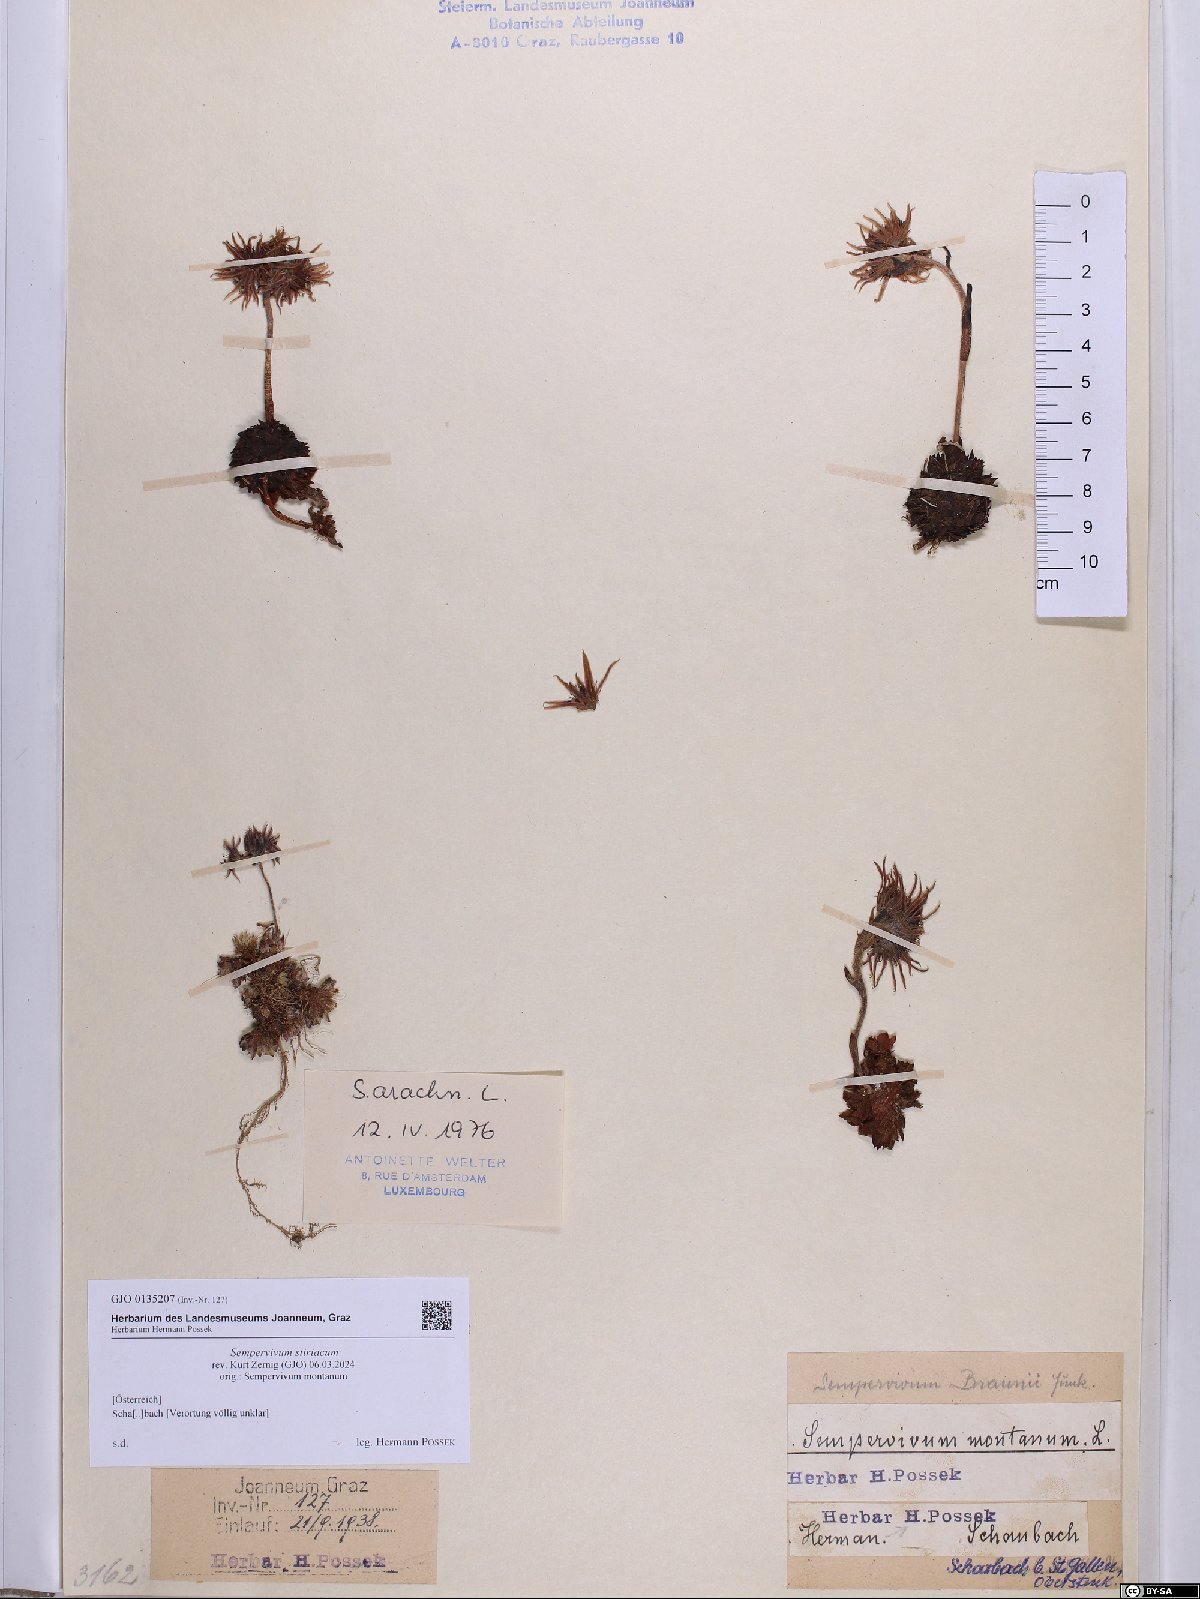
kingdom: Plantae
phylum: Tracheophyta
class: Magnoliopsida
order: Saxifragales
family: Crassulaceae
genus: Sempervivum
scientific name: Sempervivum montanum
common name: Mountain house-leek
